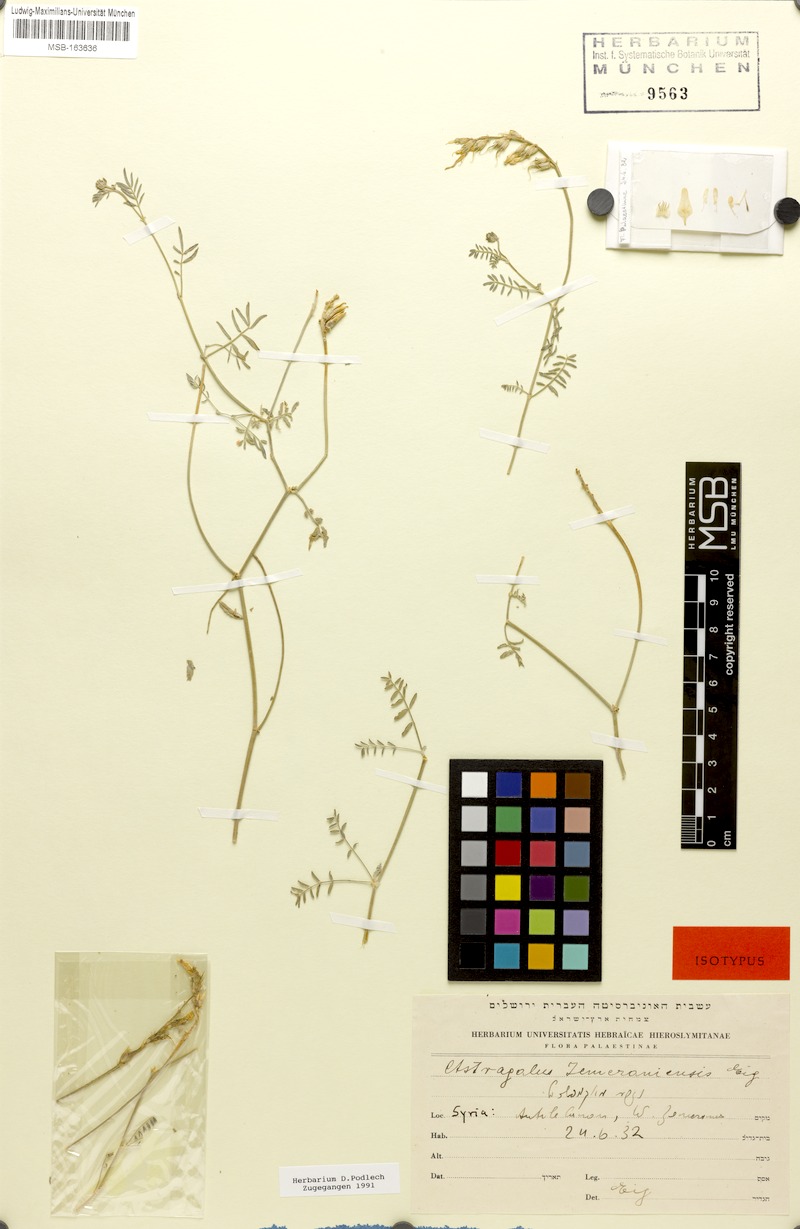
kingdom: Plantae
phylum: Tracheophyta
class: Magnoliopsida
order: Fabales
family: Fabaceae
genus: Astragalus
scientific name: Astragalus aduncus
